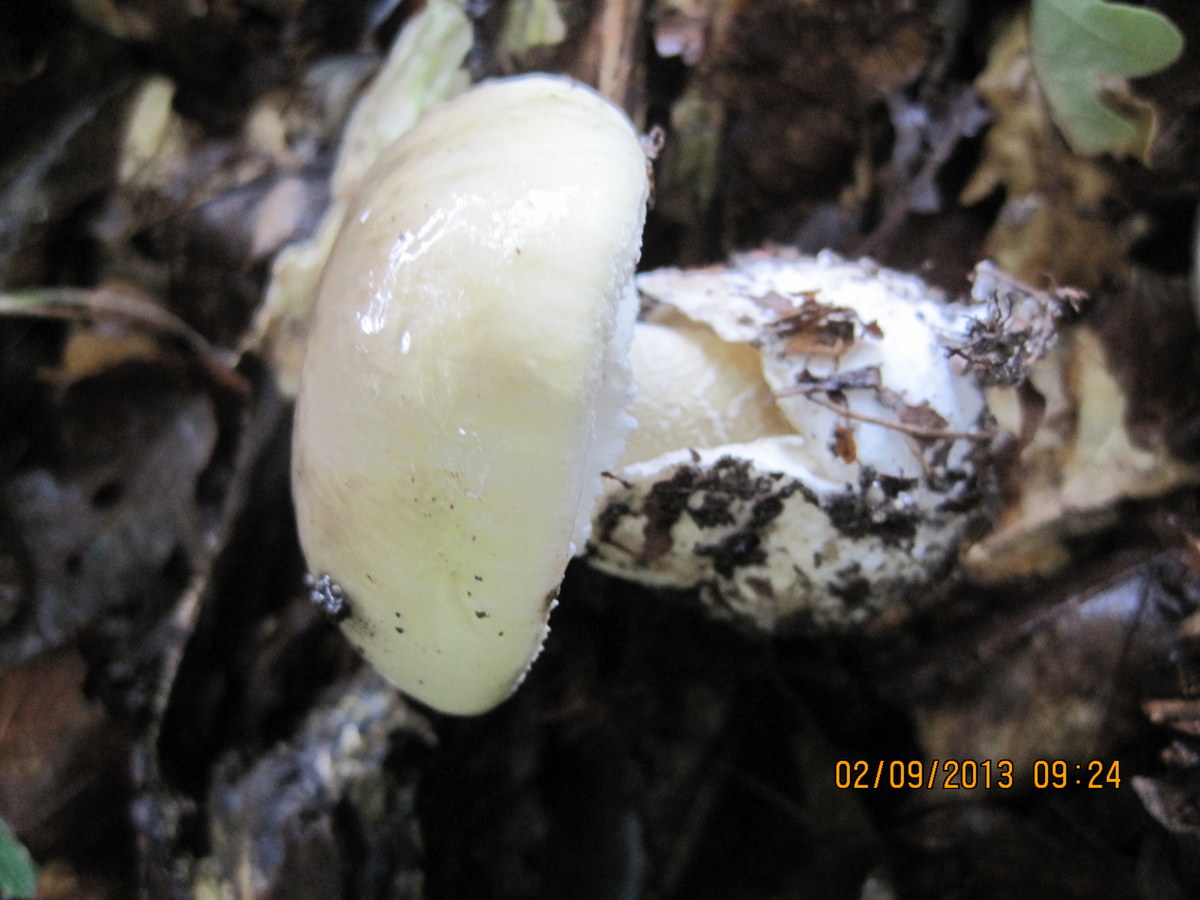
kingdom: Fungi
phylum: Basidiomycota
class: Agaricomycetes
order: Agaricales
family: Amanitaceae
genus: Amanita
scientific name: Amanita phalloides
